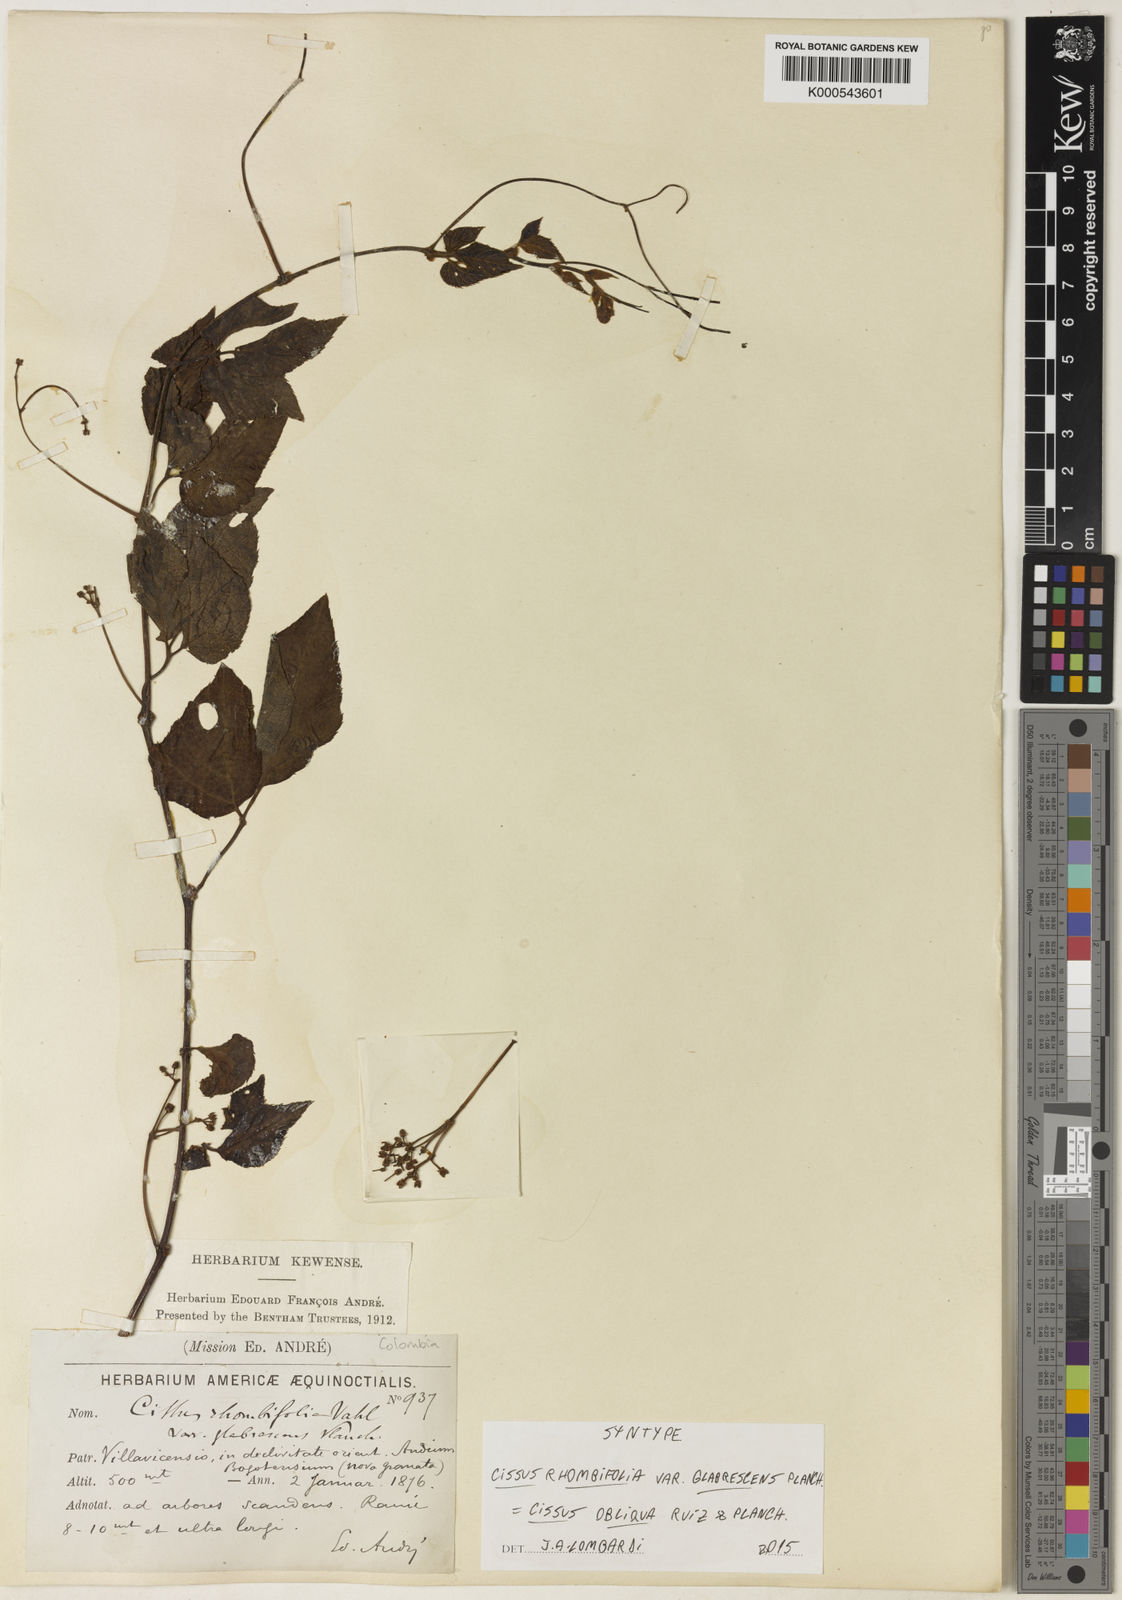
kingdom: Plantae
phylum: Tracheophyta
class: Magnoliopsida
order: Vitales
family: Vitaceae
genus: Cissus
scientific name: Cissus obliqua
